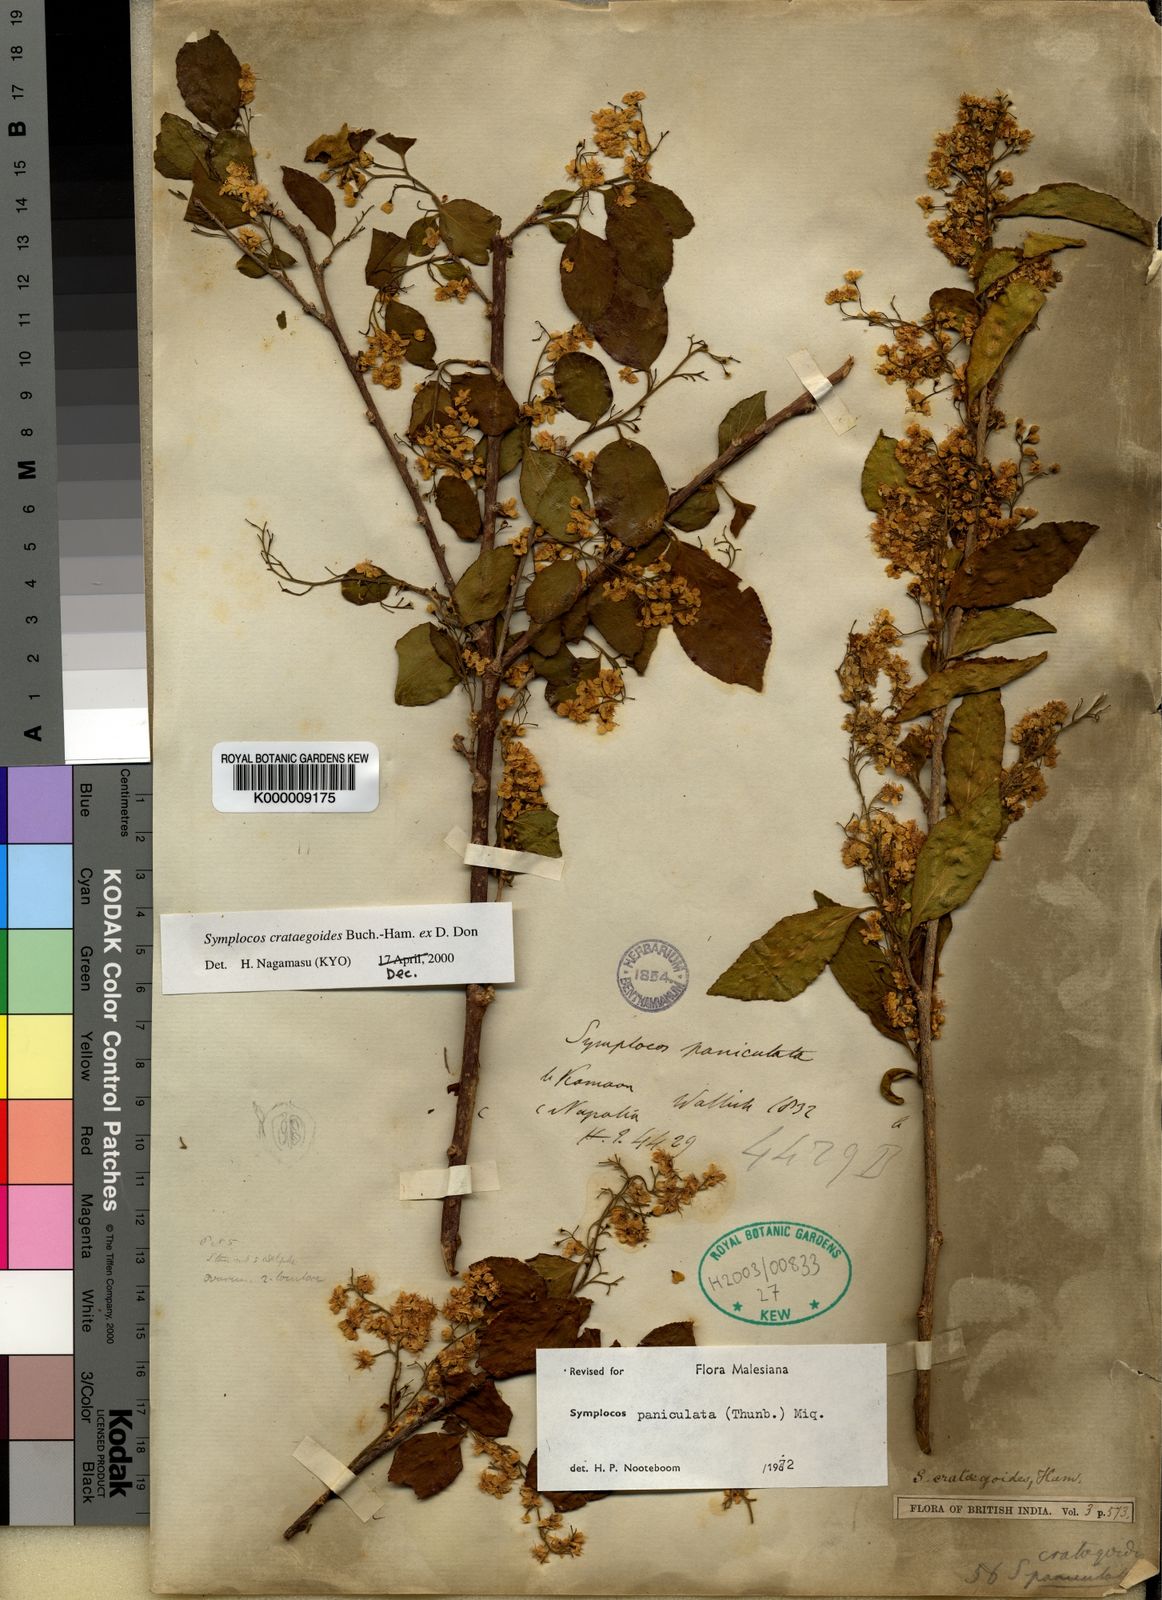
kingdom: Plantae
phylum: Tracheophyta
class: Magnoliopsida
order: Ericales
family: Symplocaceae
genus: Symplocos
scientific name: Symplocos
